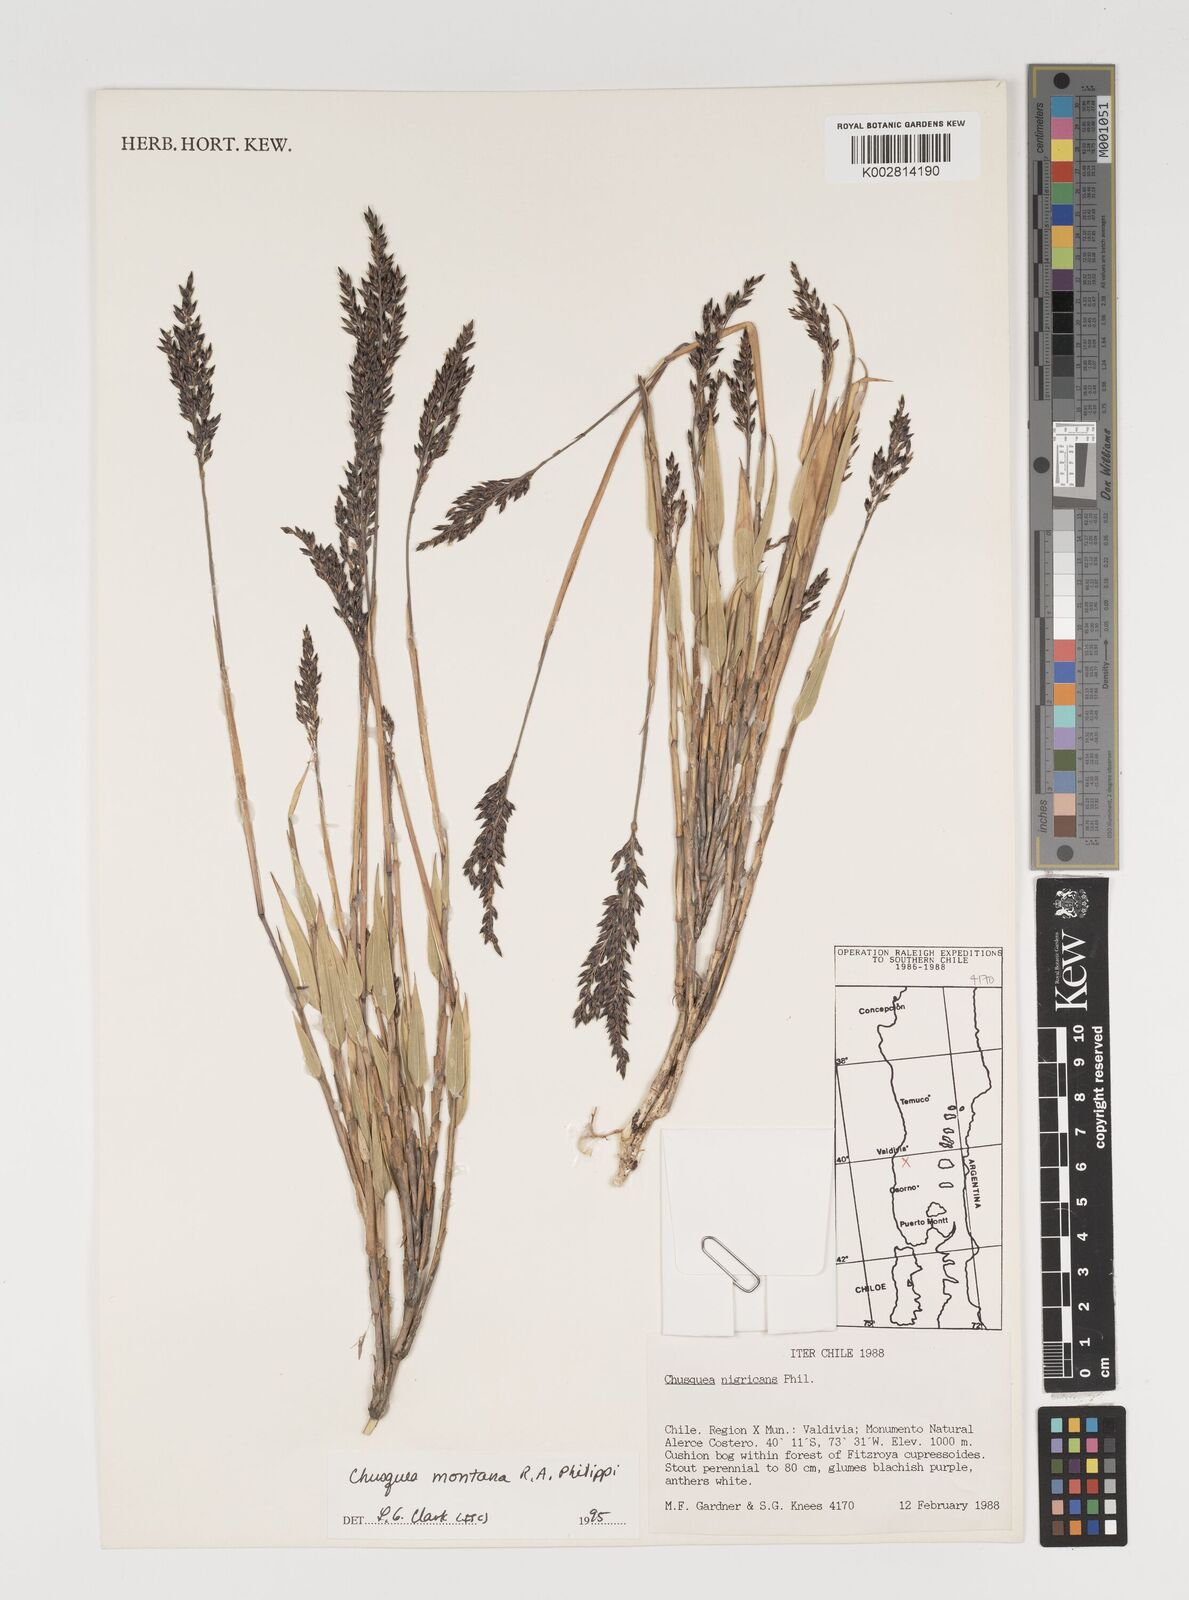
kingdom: Plantae
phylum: Tracheophyta
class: Liliopsida
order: Poales
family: Poaceae
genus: Chusquea
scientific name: Chusquea montana
